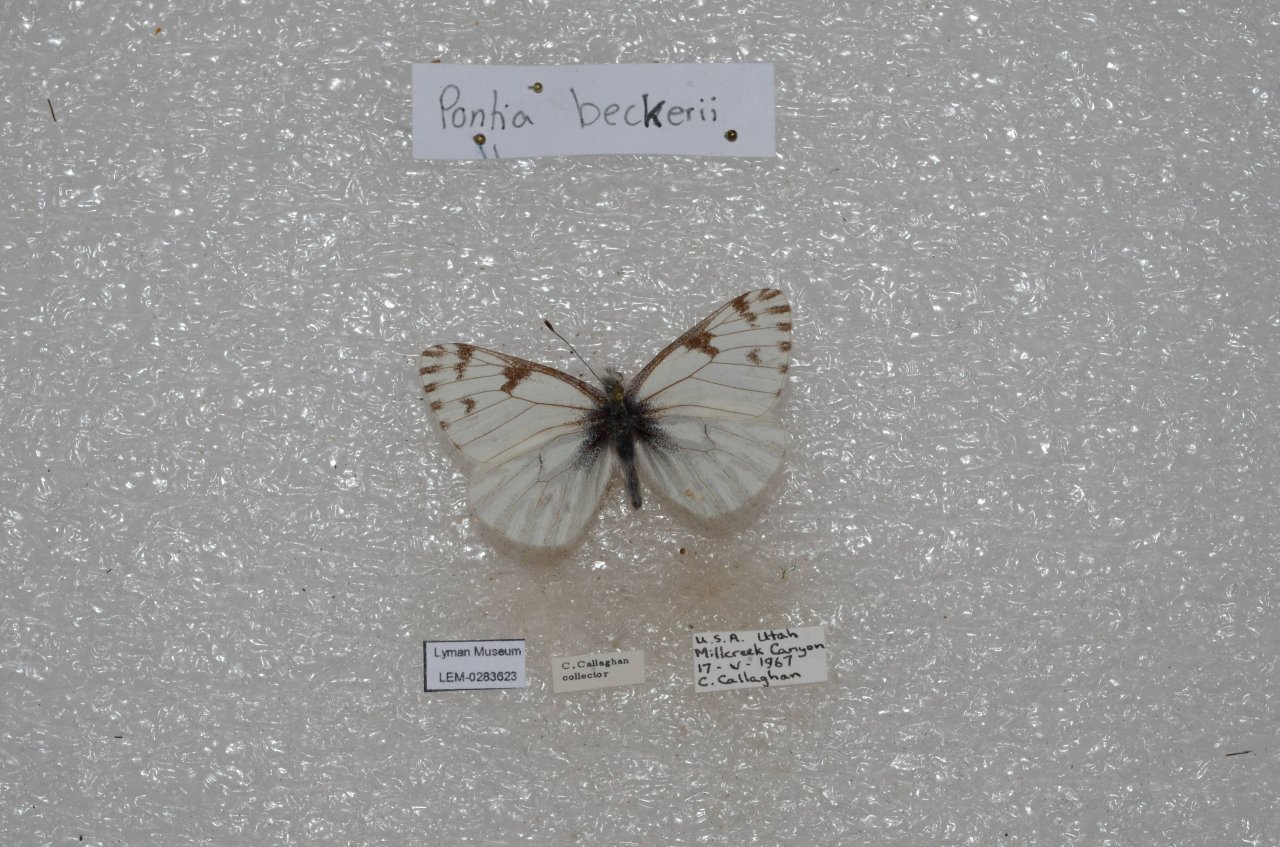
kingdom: Animalia
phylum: Arthropoda
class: Insecta
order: Lepidoptera
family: Pieridae
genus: Pontia
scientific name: Pontia sisymbrii
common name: Spring White
